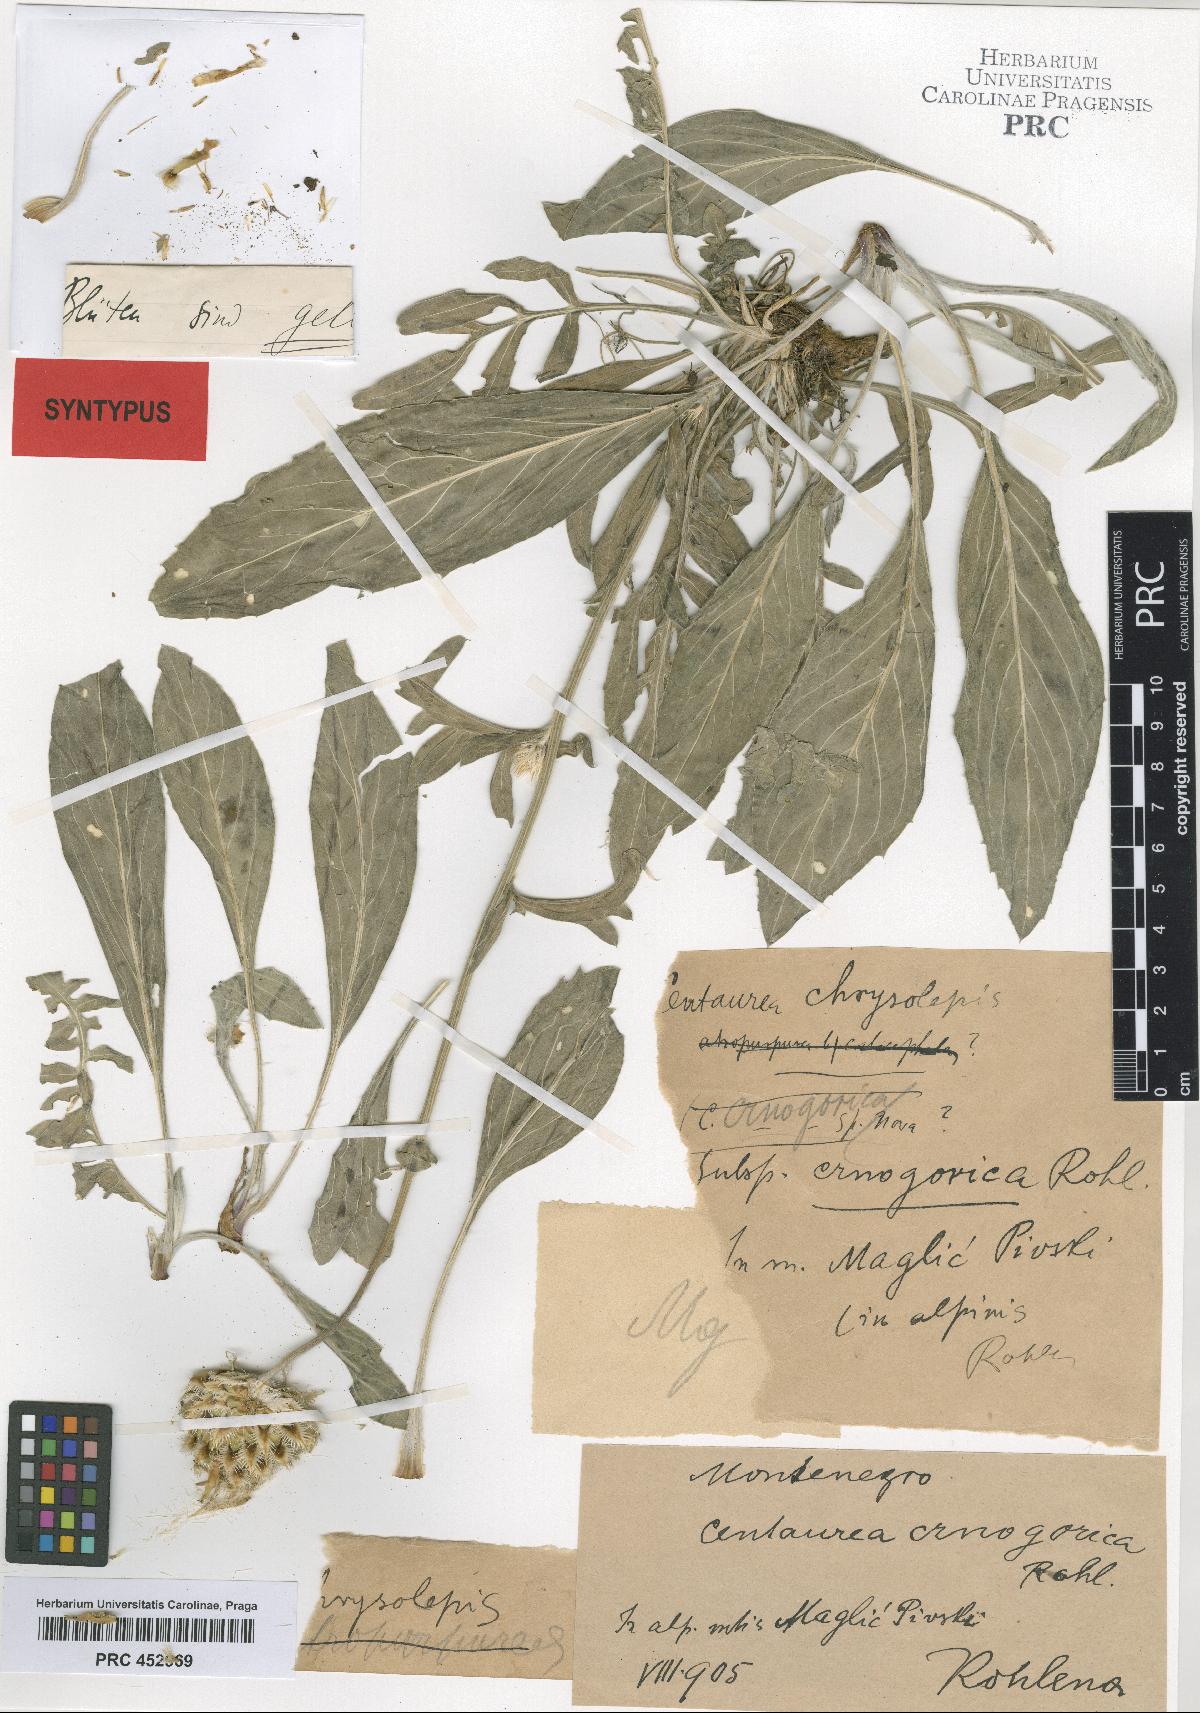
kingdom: Plantae
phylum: Tracheophyta
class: Magnoliopsida
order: Asterales
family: Asteraceae
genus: Centaurea
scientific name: Centaurea crnogorica
